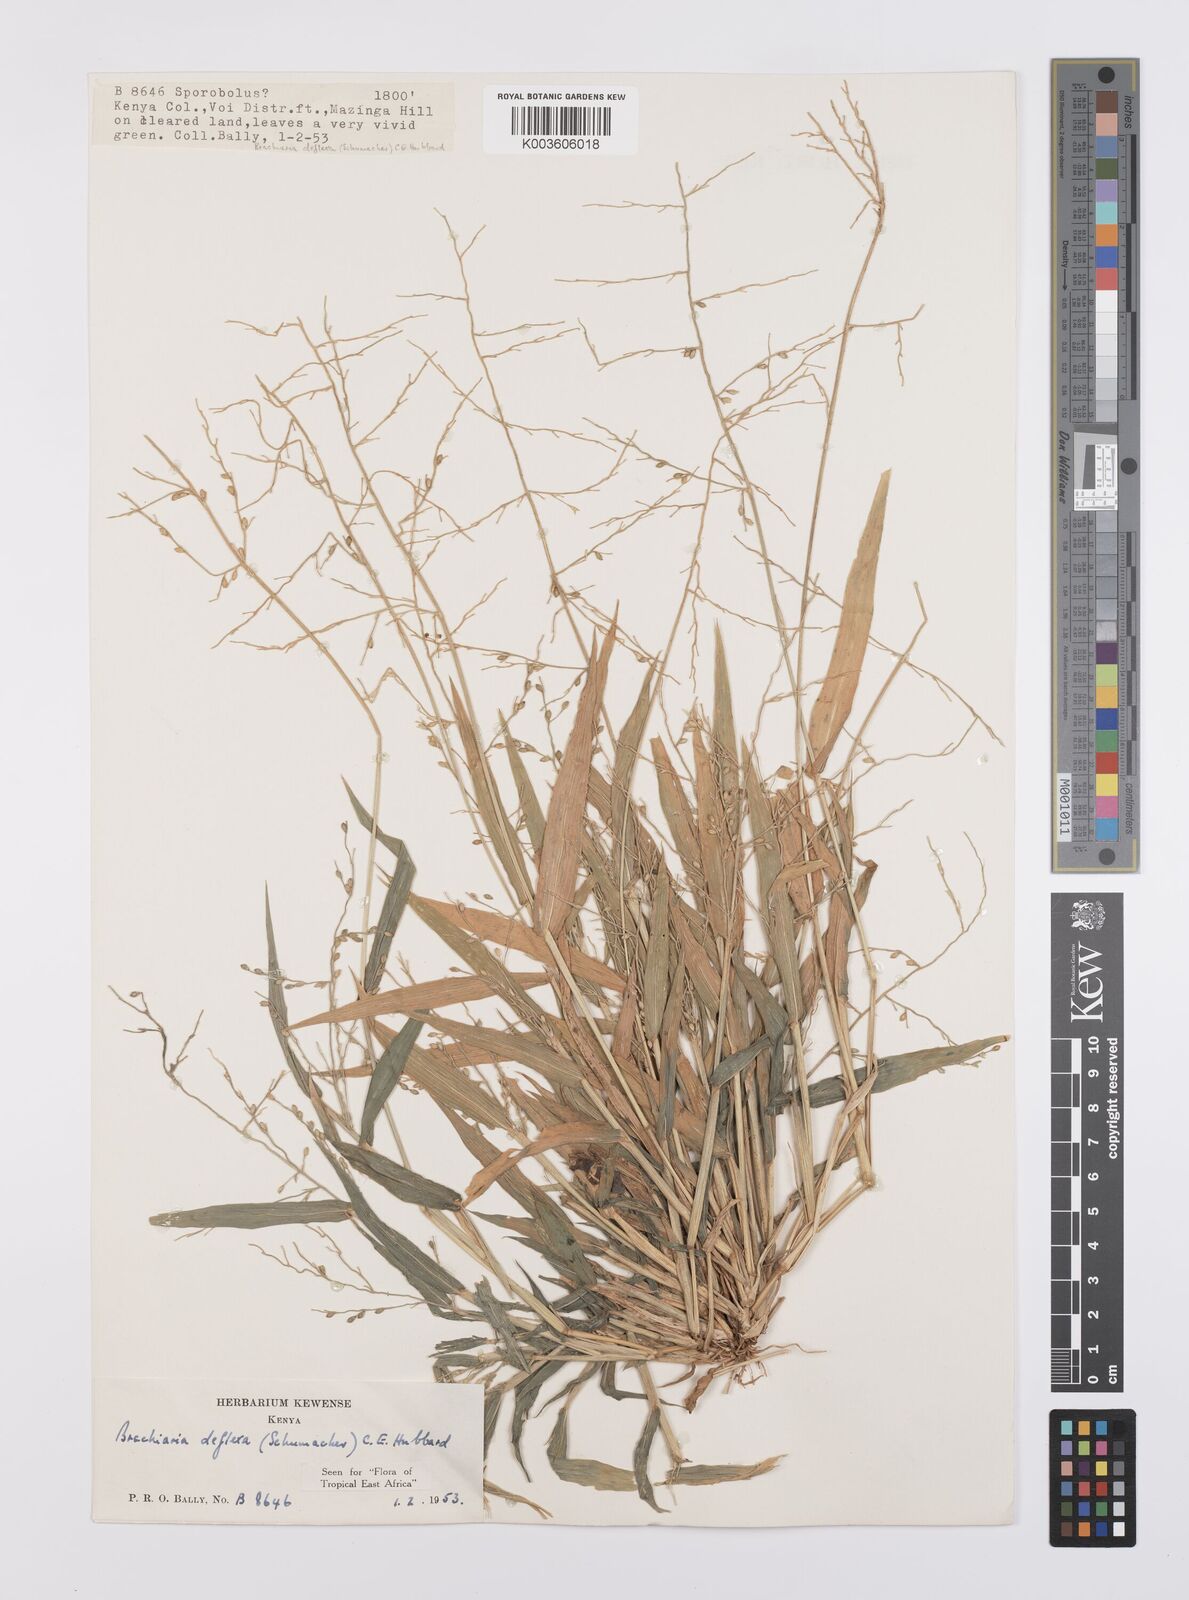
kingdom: Plantae
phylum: Tracheophyta
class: Liliopsida
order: Poales
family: Poaceae
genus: Urochloa
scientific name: Urochloa deflexa
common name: Guinea millet
